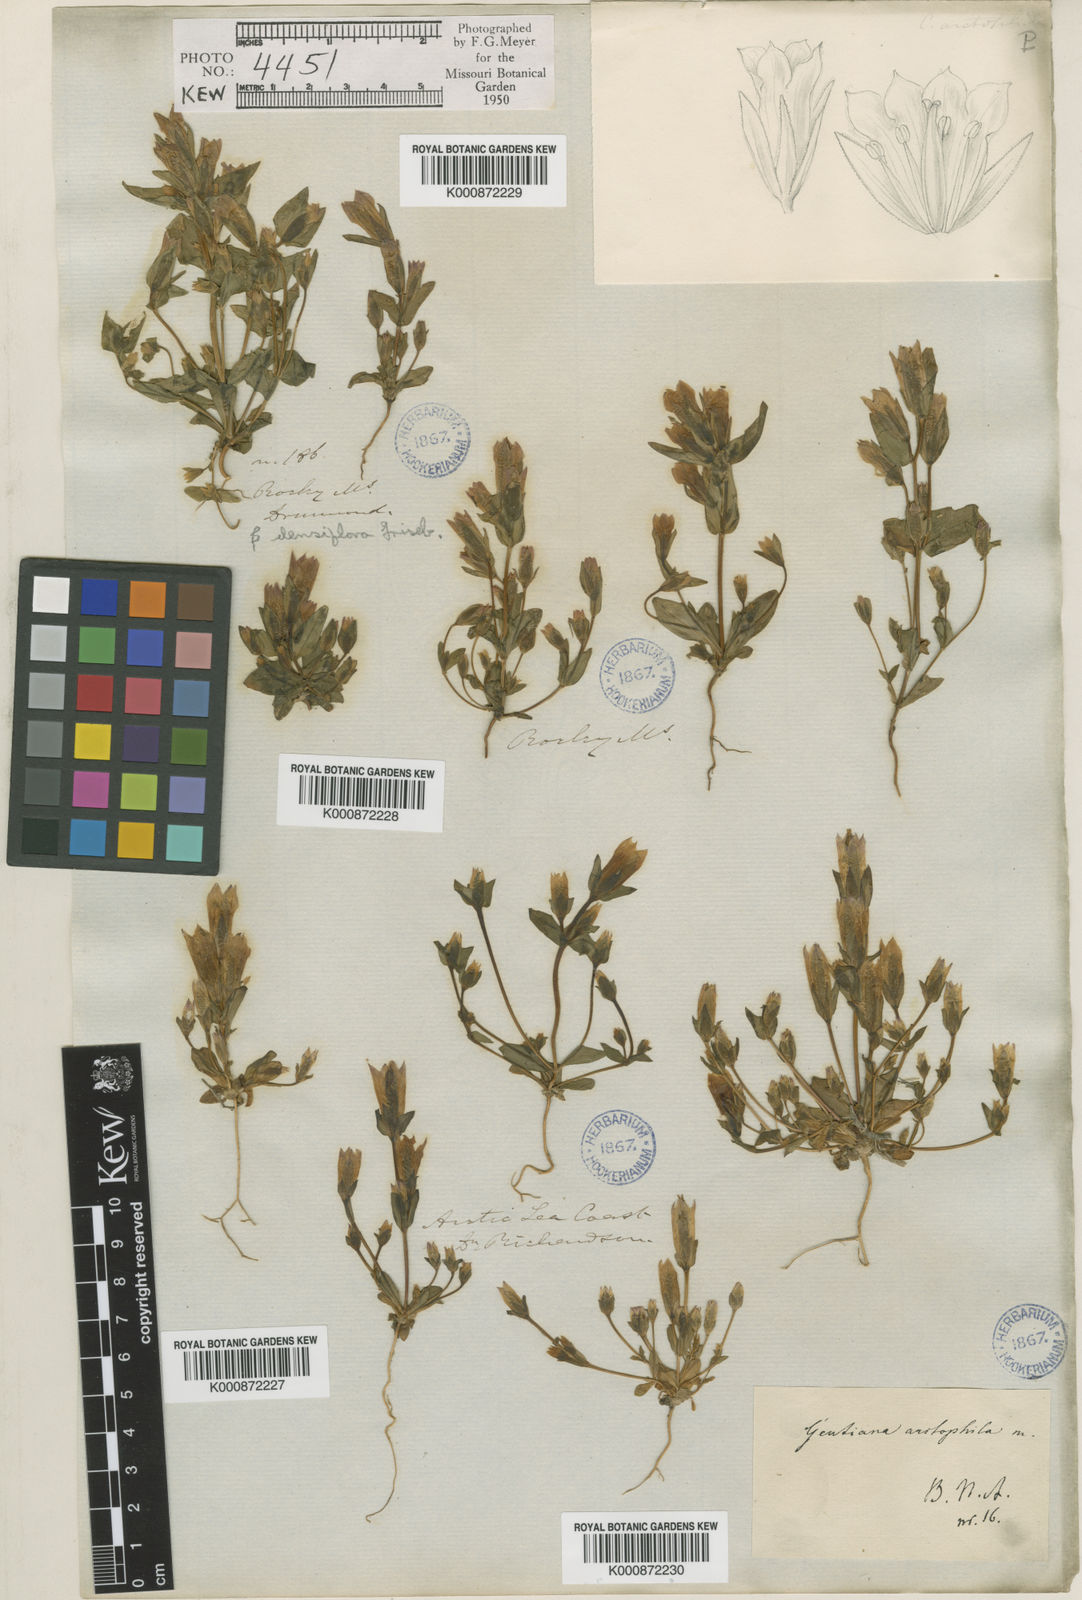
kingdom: Plantae
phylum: Tracheophyta
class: Magnoliopsida
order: Gentianales
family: Gentianaceae
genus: Gentianella
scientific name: Gentianella propinqua
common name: Four-parted dwarf-gentian
